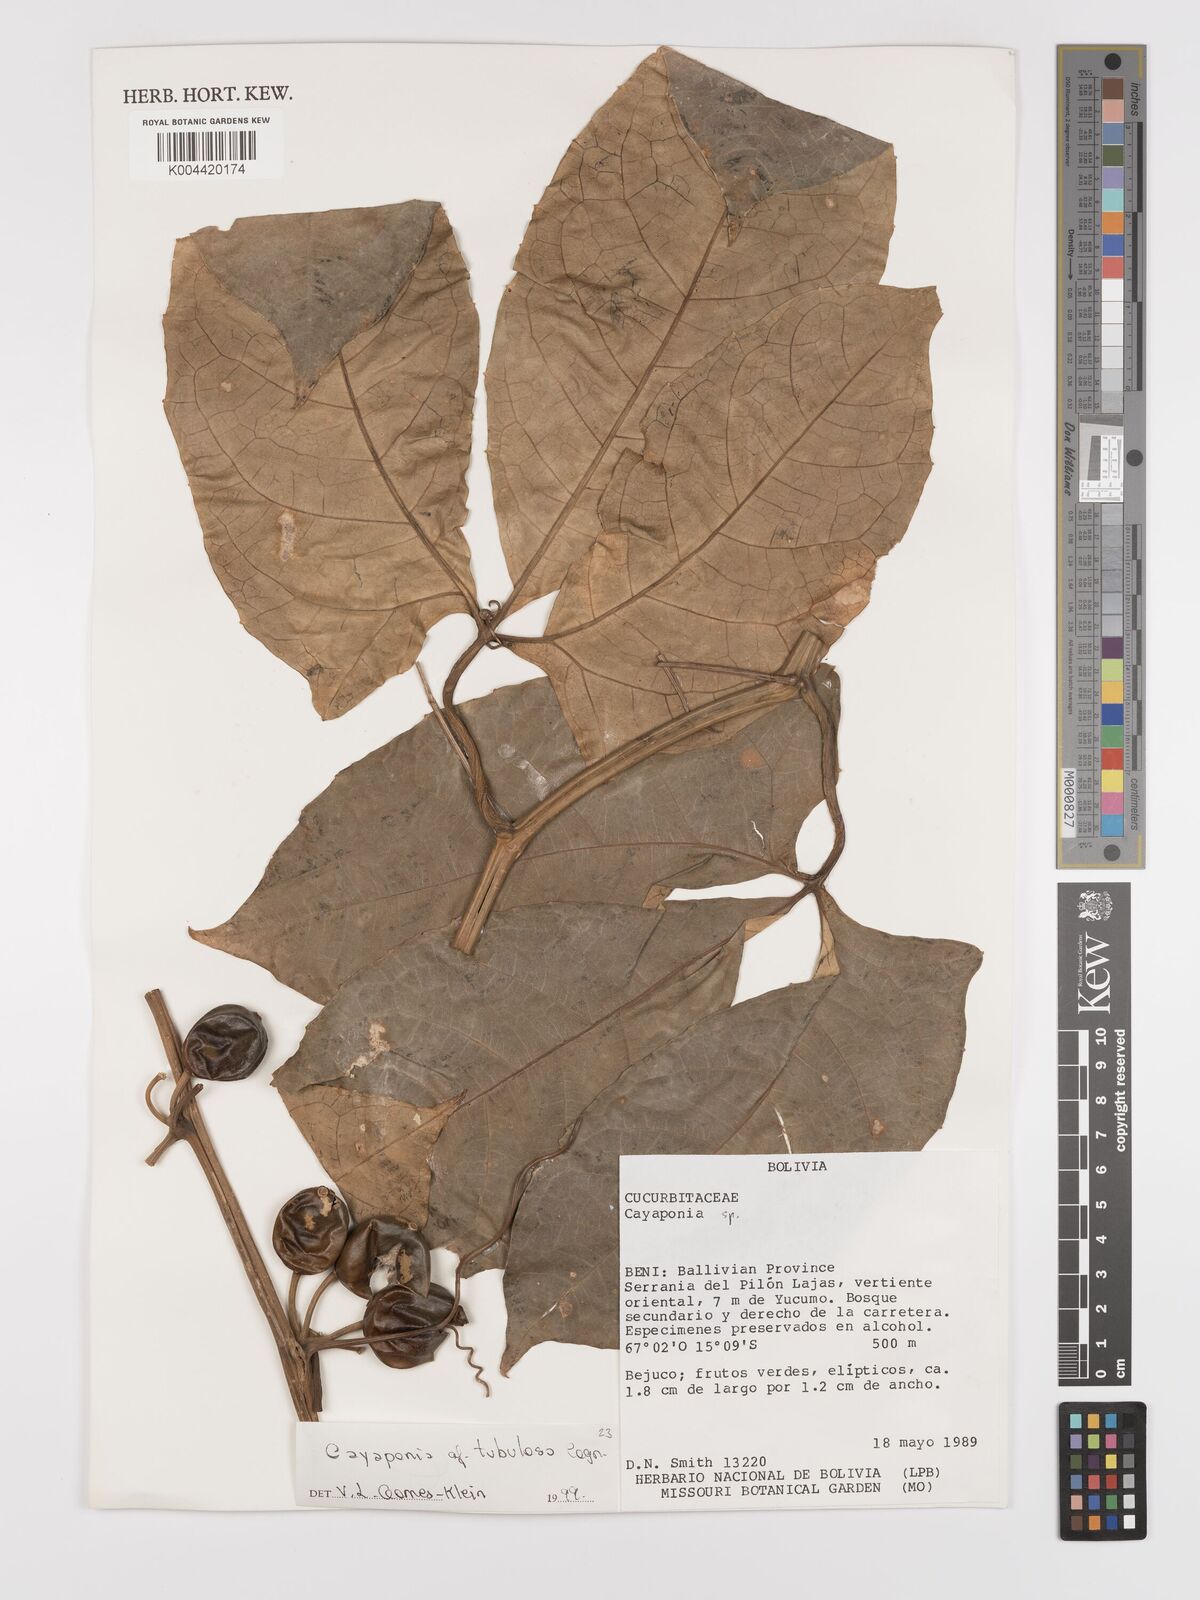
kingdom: Plantae
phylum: Tracheophyta
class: Magnoliopsida
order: Cucurbitales
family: Cucurbitaceae
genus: Cayaponia
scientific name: Cayaponia tubulosa
